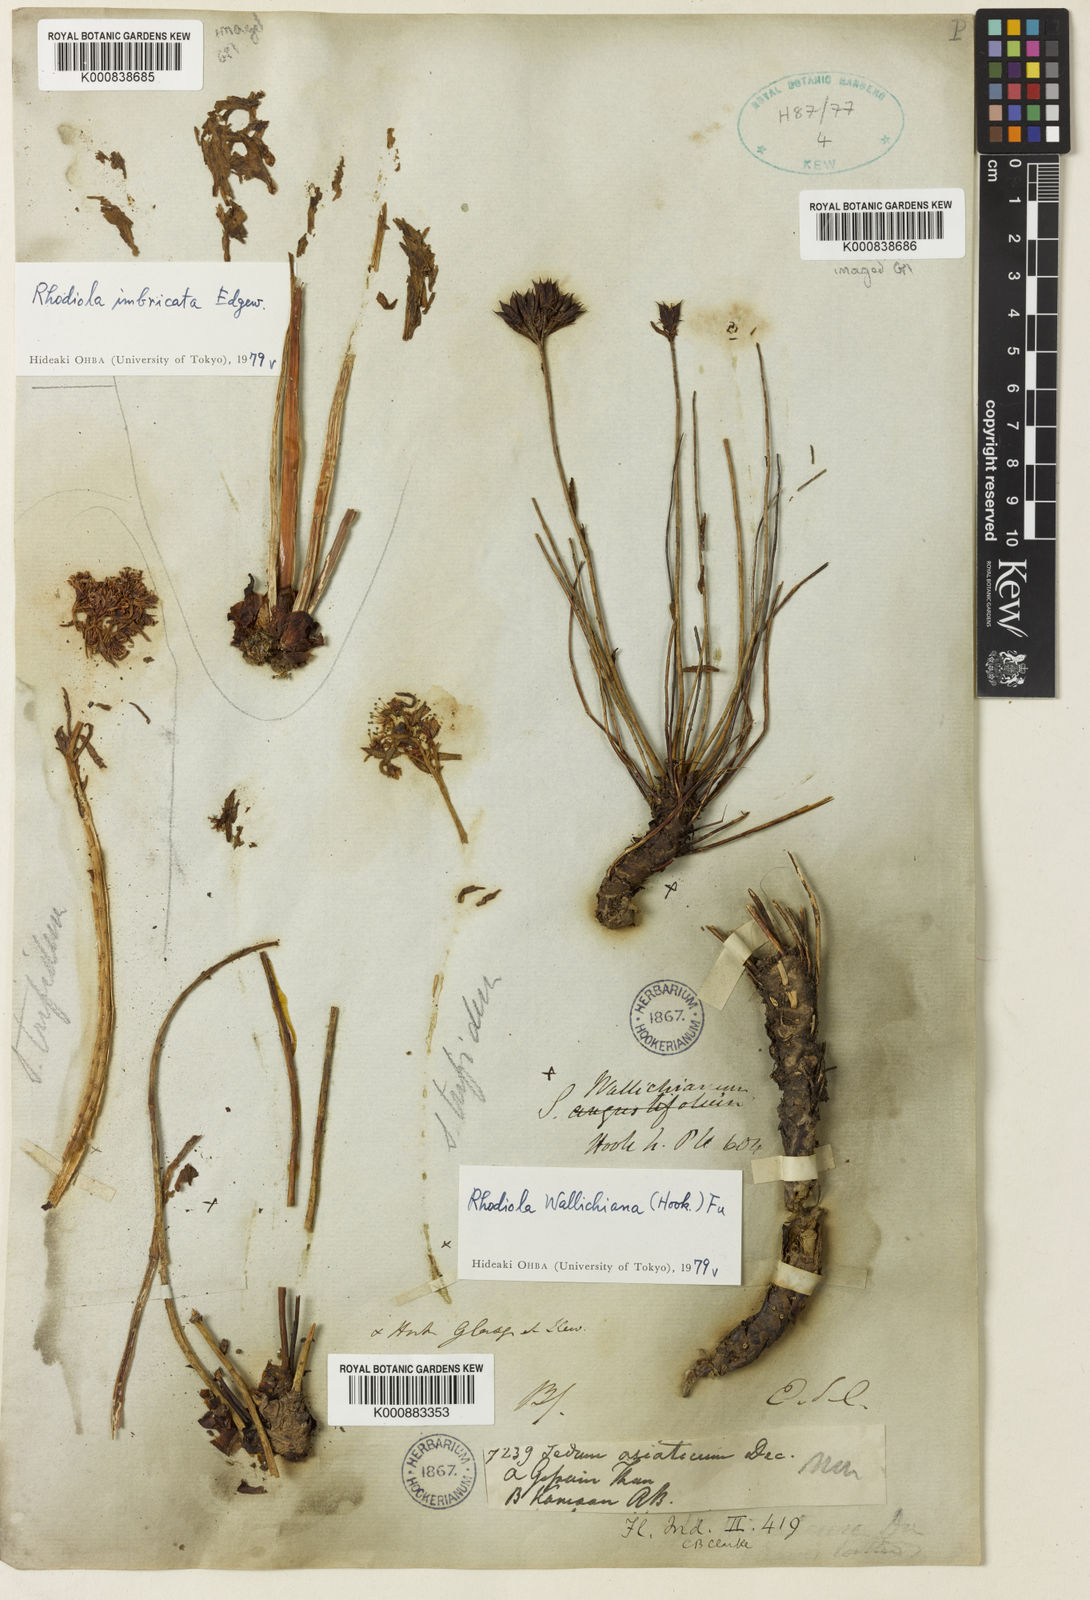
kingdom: Plantae
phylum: Tracheophyta
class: Magnoliopsida
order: Saxifragales
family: Crassulaceae
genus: Rhodiola
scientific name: Rhodiola wallichiana
